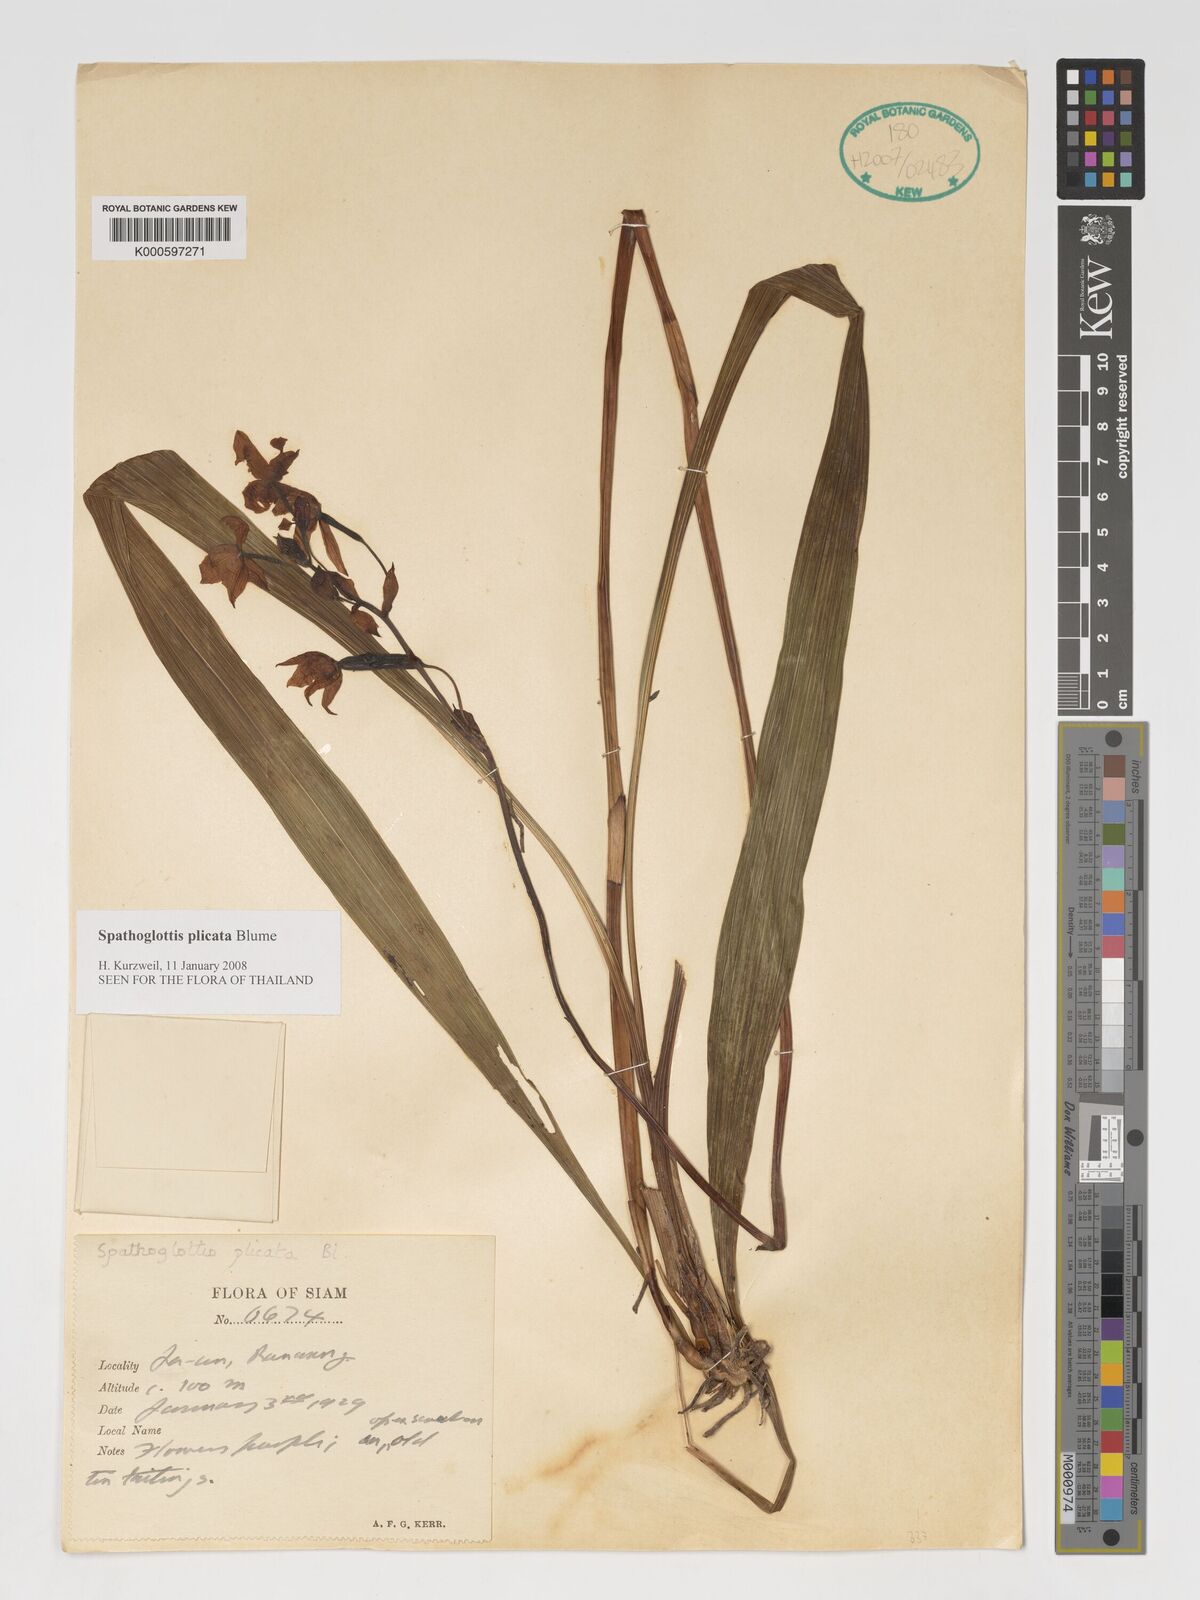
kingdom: Plantae
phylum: Tracheophyta
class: Liliopsida
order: Asparagales
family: Orchidaceae
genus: Spathoglottis
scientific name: Spathoglottis plicata
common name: Philippine ground orchid
